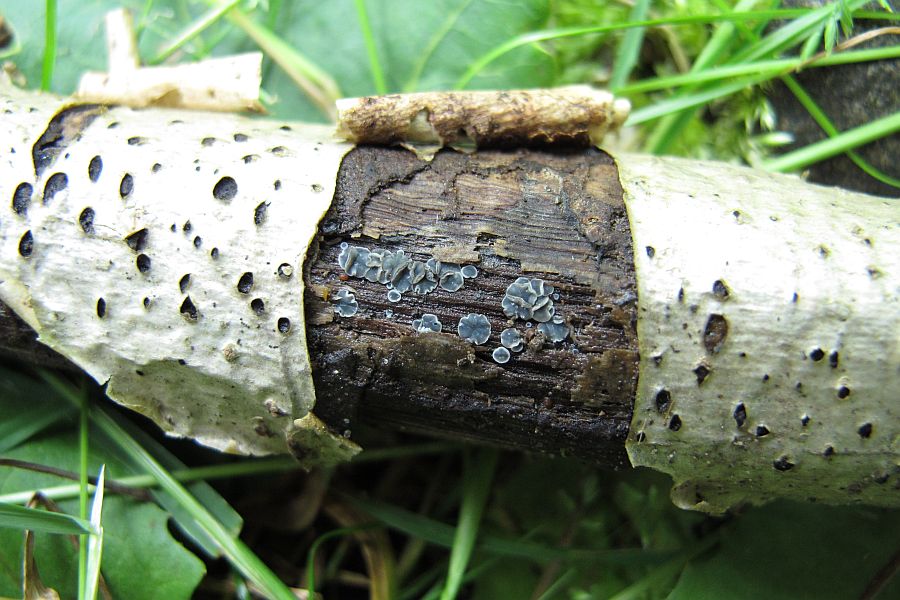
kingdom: Fungi
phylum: Ascomycota
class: Leotiomycetes
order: Helotiales
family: Mollisiaceae
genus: Mollisia
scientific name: Mollisia cinerea
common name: almindelig gråskive
